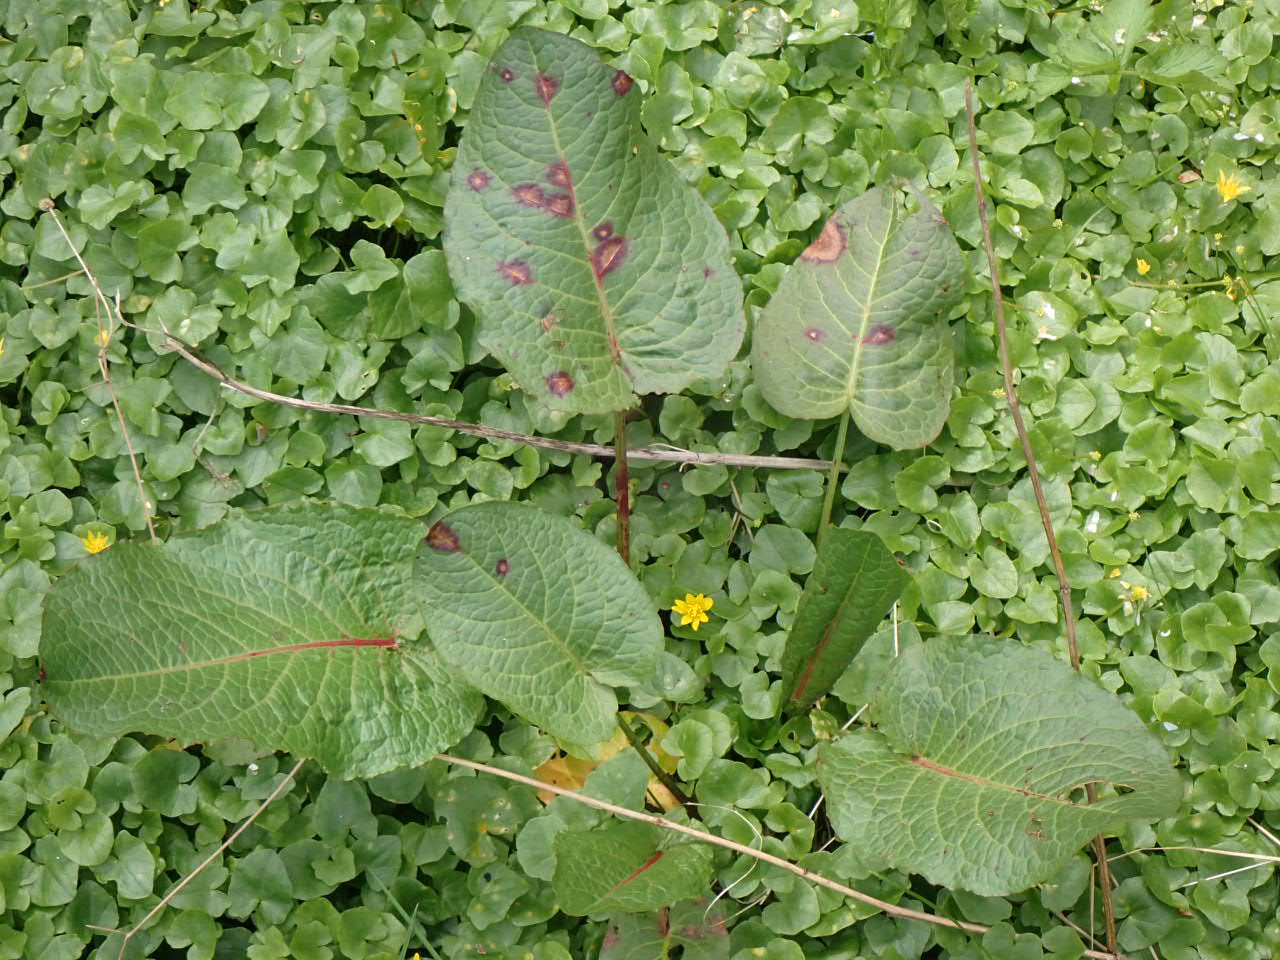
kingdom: Plantae
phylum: Tracheophyta
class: Magnoliopsida
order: Caryophyllales
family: Polygonaceae
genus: Rumex
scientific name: Rumex obtusifolius
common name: Butbladet skræppe
